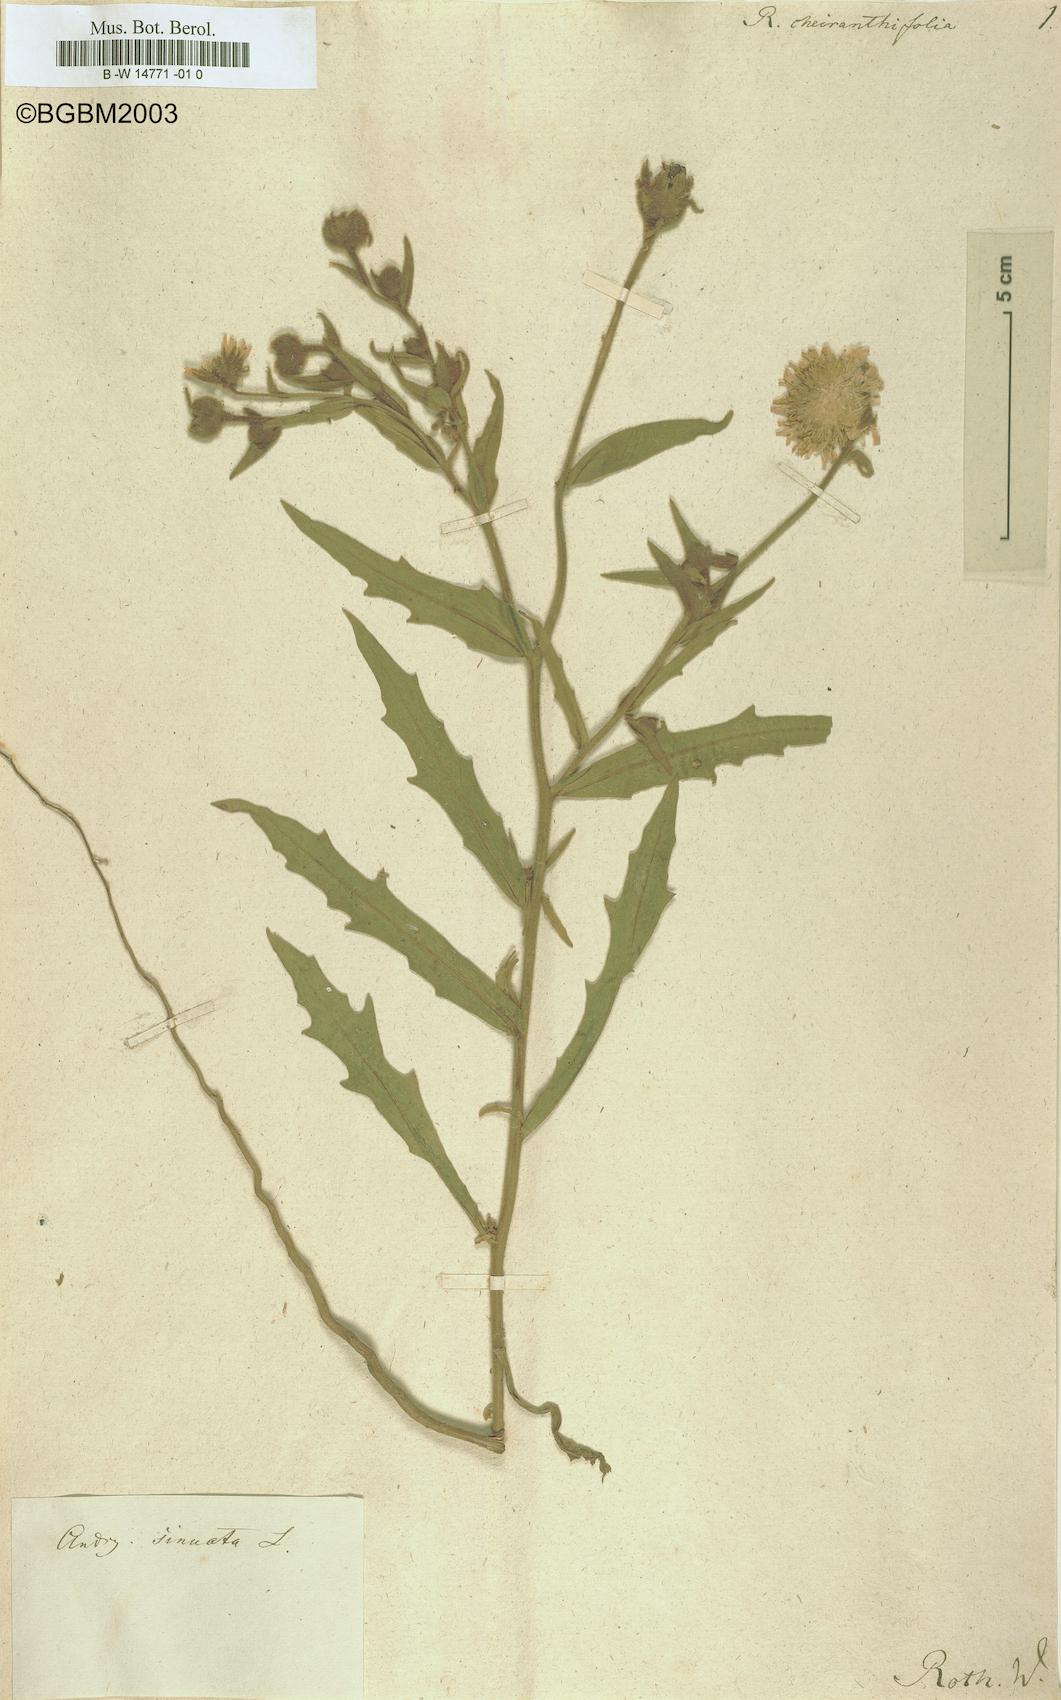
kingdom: Plantae
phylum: Tracheophyta
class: Magnoliopsida
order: Asterales
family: Asteraceae
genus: Andryala
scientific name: Andryala integrifolia
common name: Common andryala
